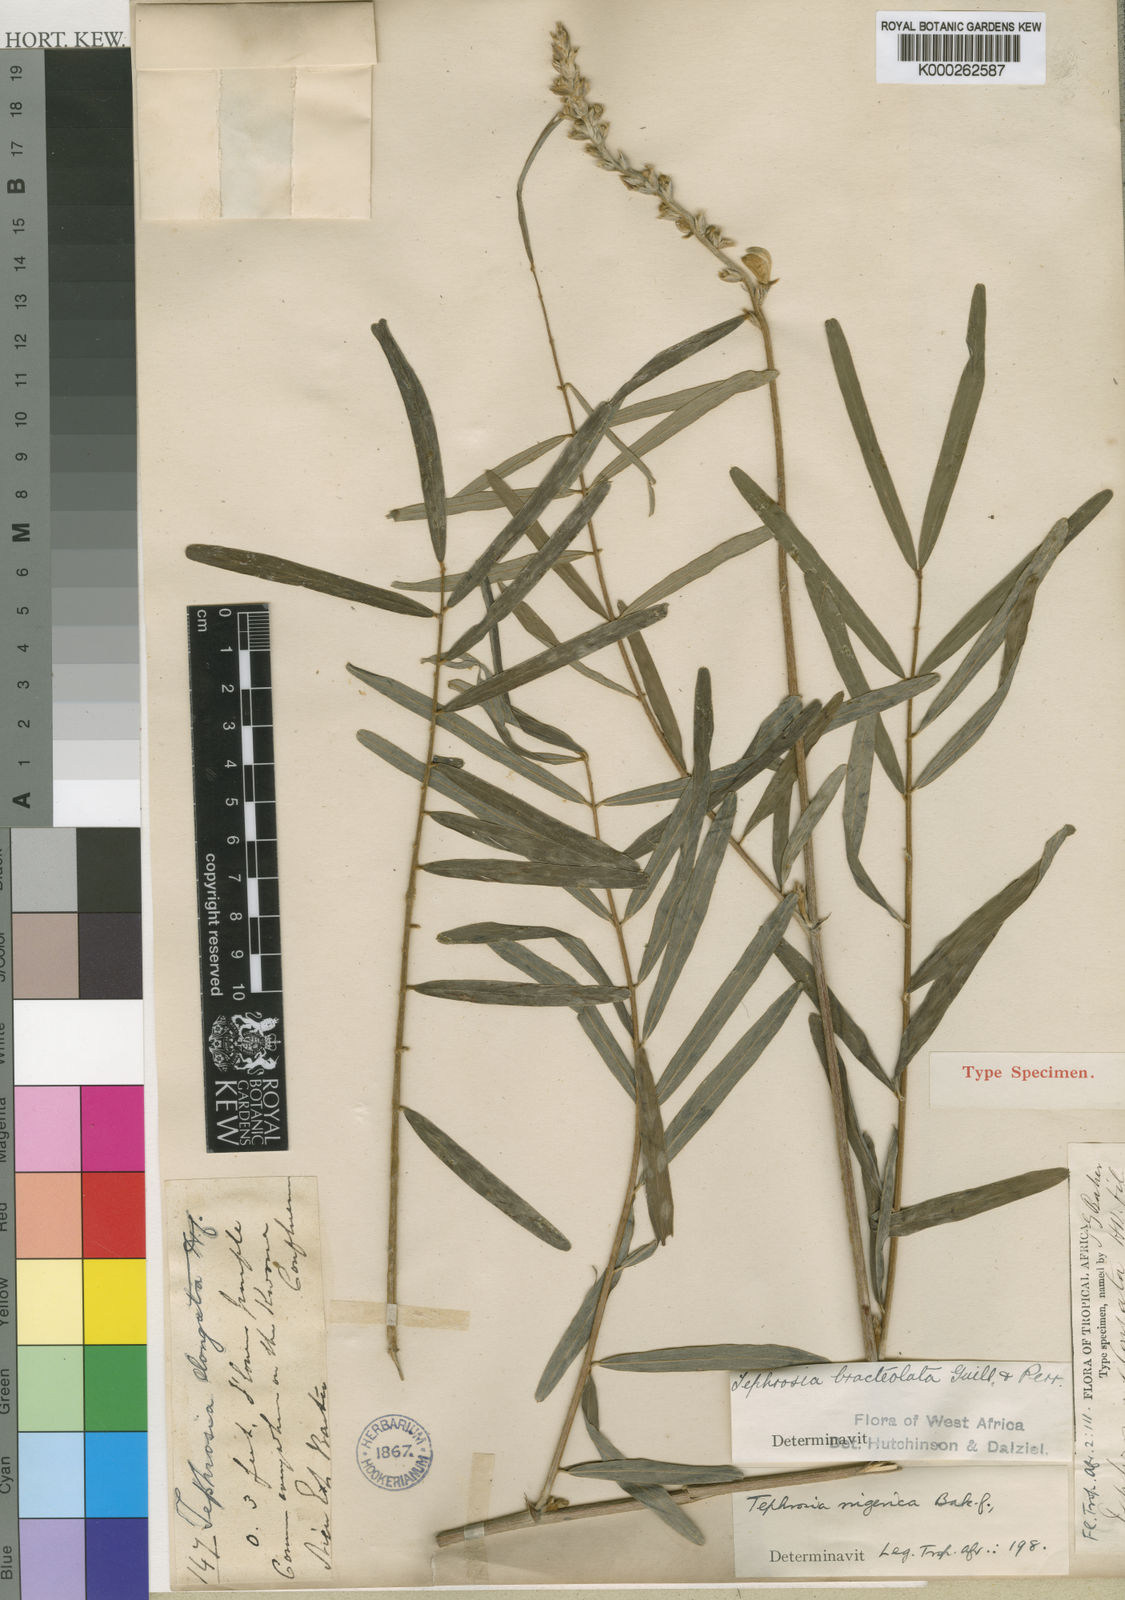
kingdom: Plantae
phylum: Tracheophyta
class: Magnoliopsida
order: Fabales
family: Fabaceae
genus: Tephrosia
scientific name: Tephrosia bracteolata
